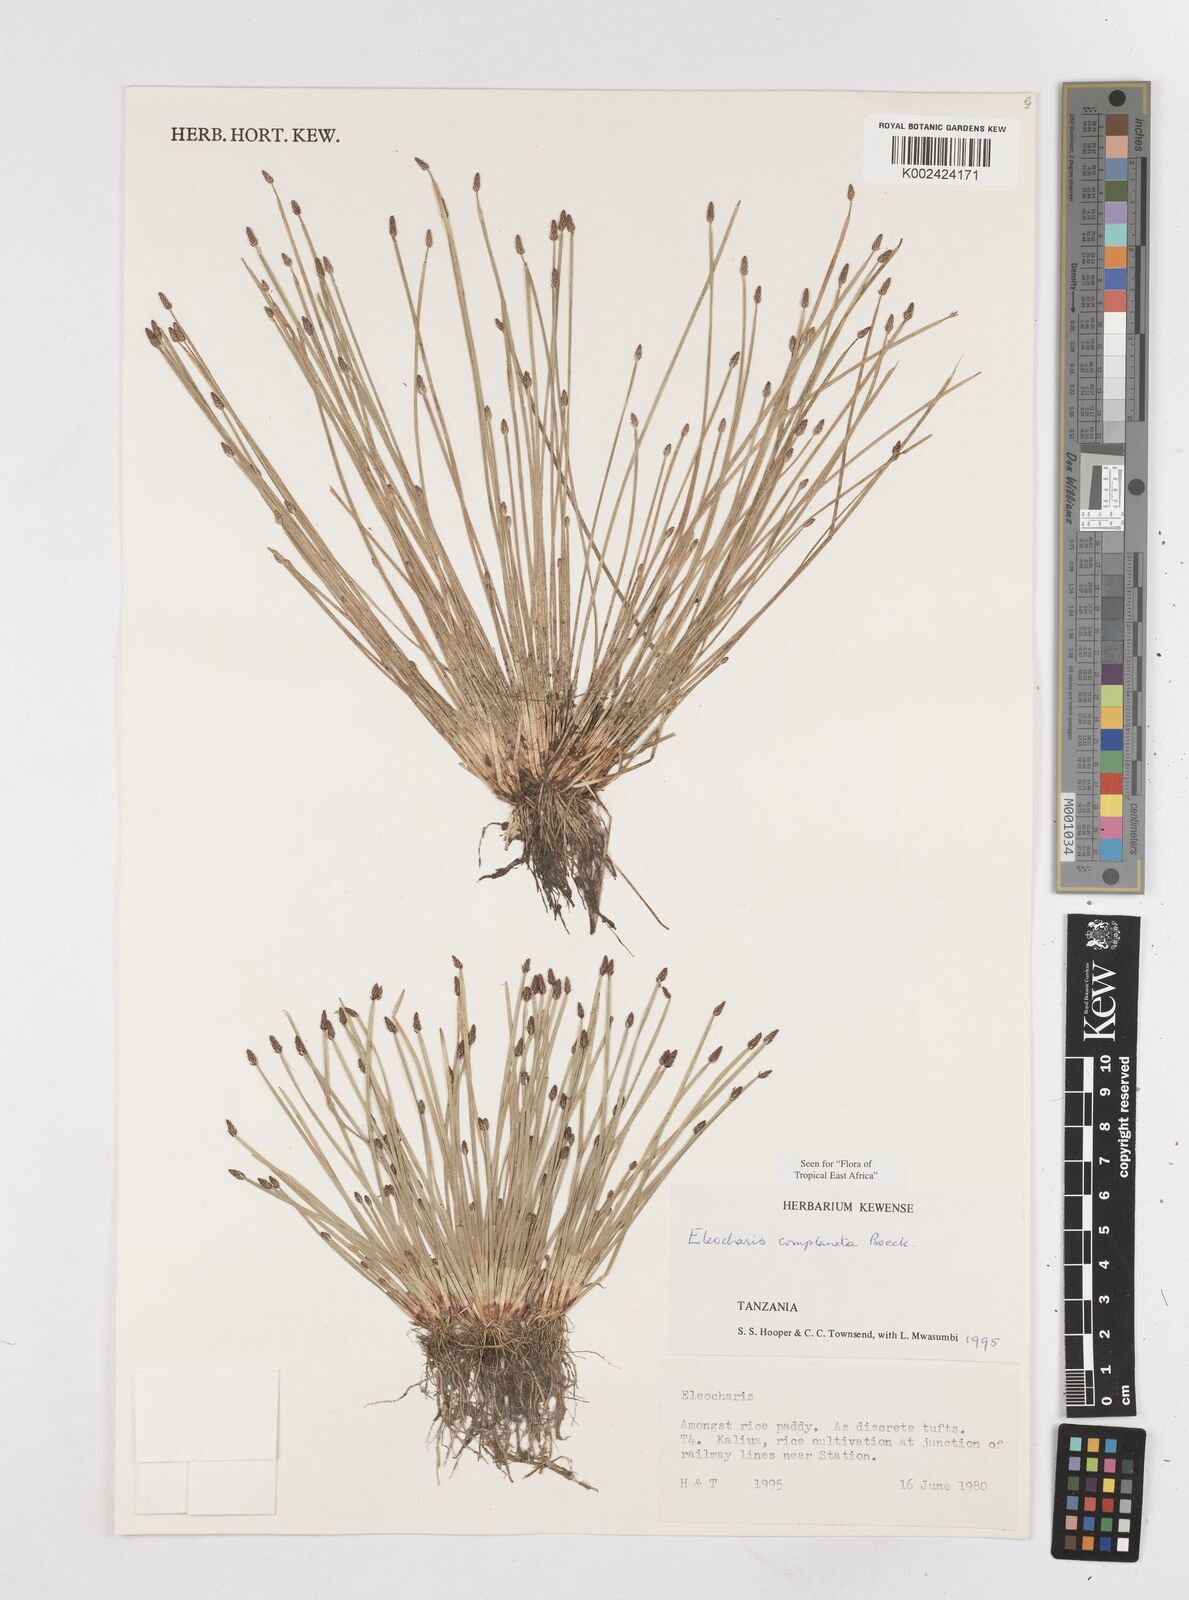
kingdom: Plantae
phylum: Tracheophyta
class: Liliopsida
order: Poales
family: Cyperaceae
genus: Eleocharis
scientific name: Eleocharis complanata
